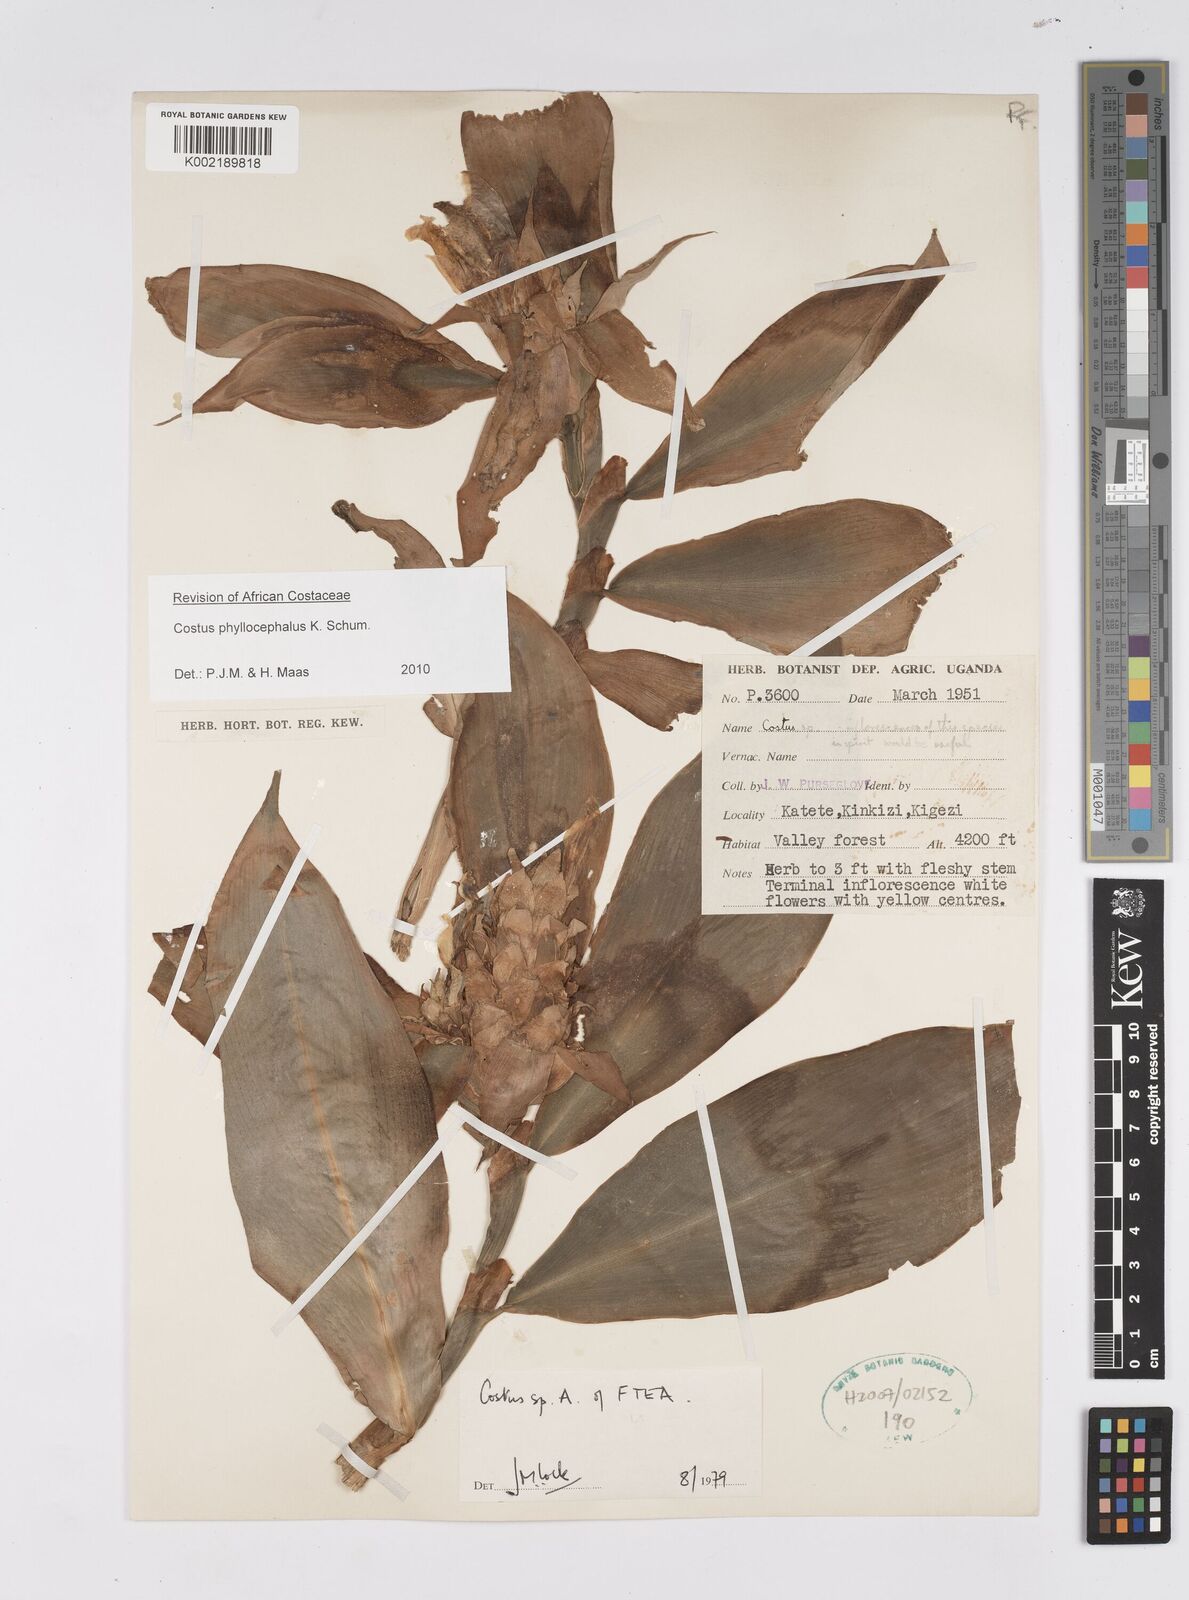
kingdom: Plantae
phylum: Tracheophyta
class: Liliopsida
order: Zingiberales
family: Costaceae
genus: Costus
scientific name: Costus phyllocephalus
